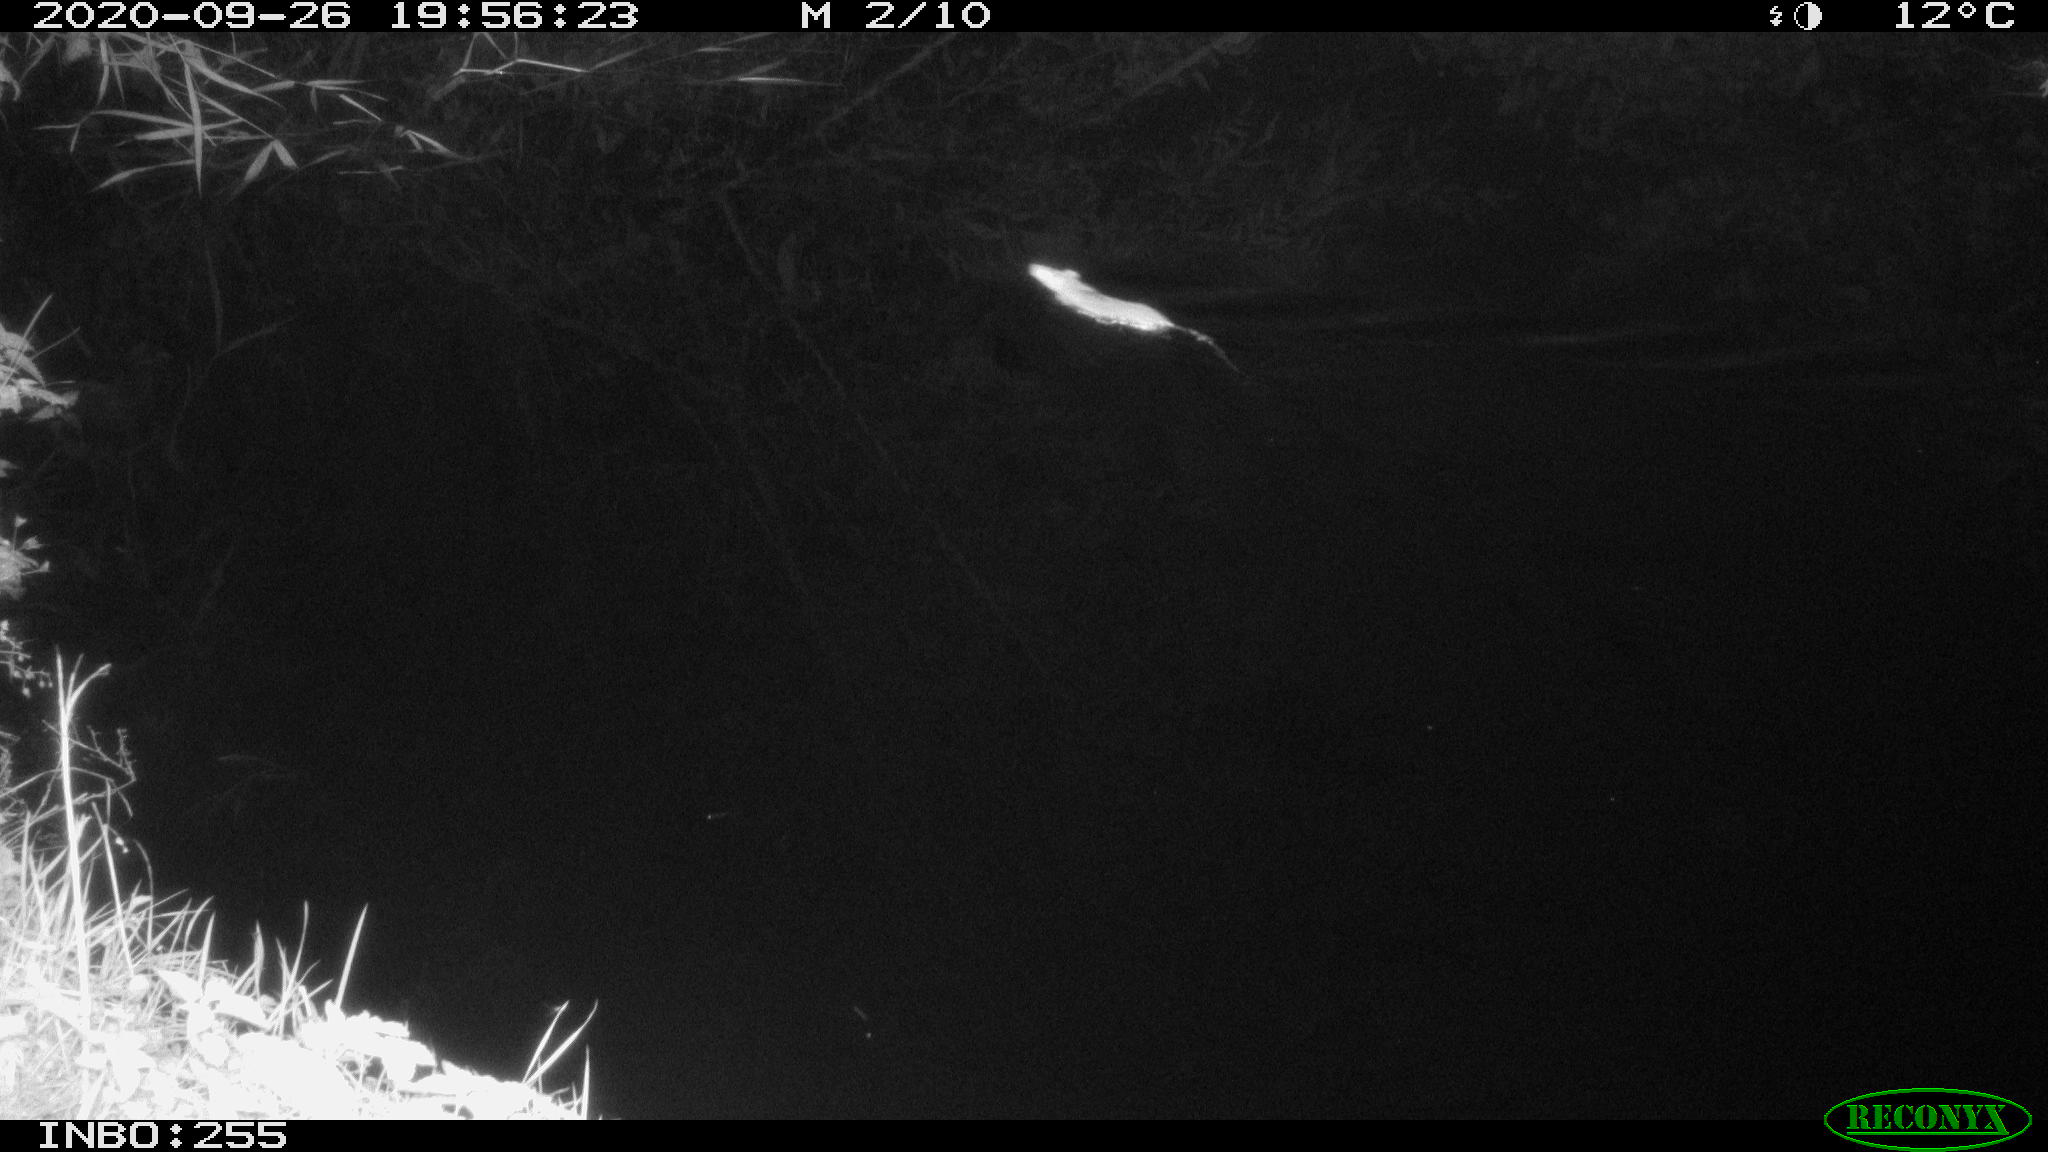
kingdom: Animalia
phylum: Chordata
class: Mammalia
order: Rodentia
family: Muridae
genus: Rattus
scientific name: Rattus norvegicus
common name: Brown rat
